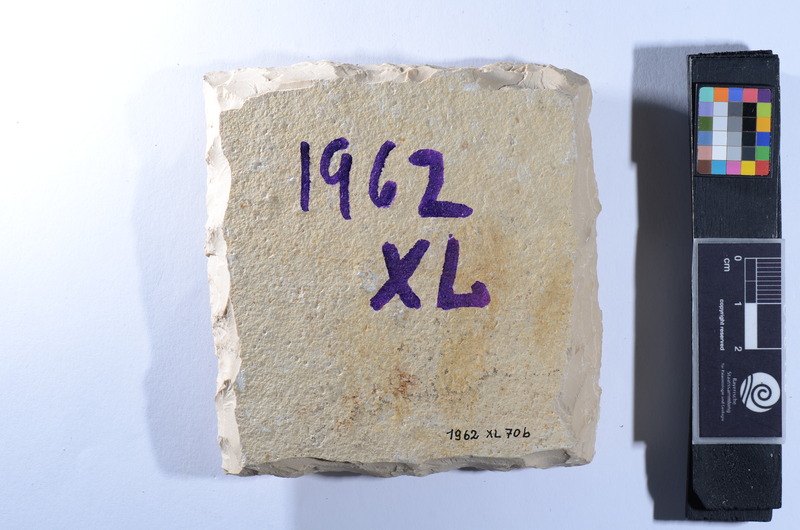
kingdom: Animalia
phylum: Chordata
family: Pycnodontes
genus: Macromesodon
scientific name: Macromesodon
